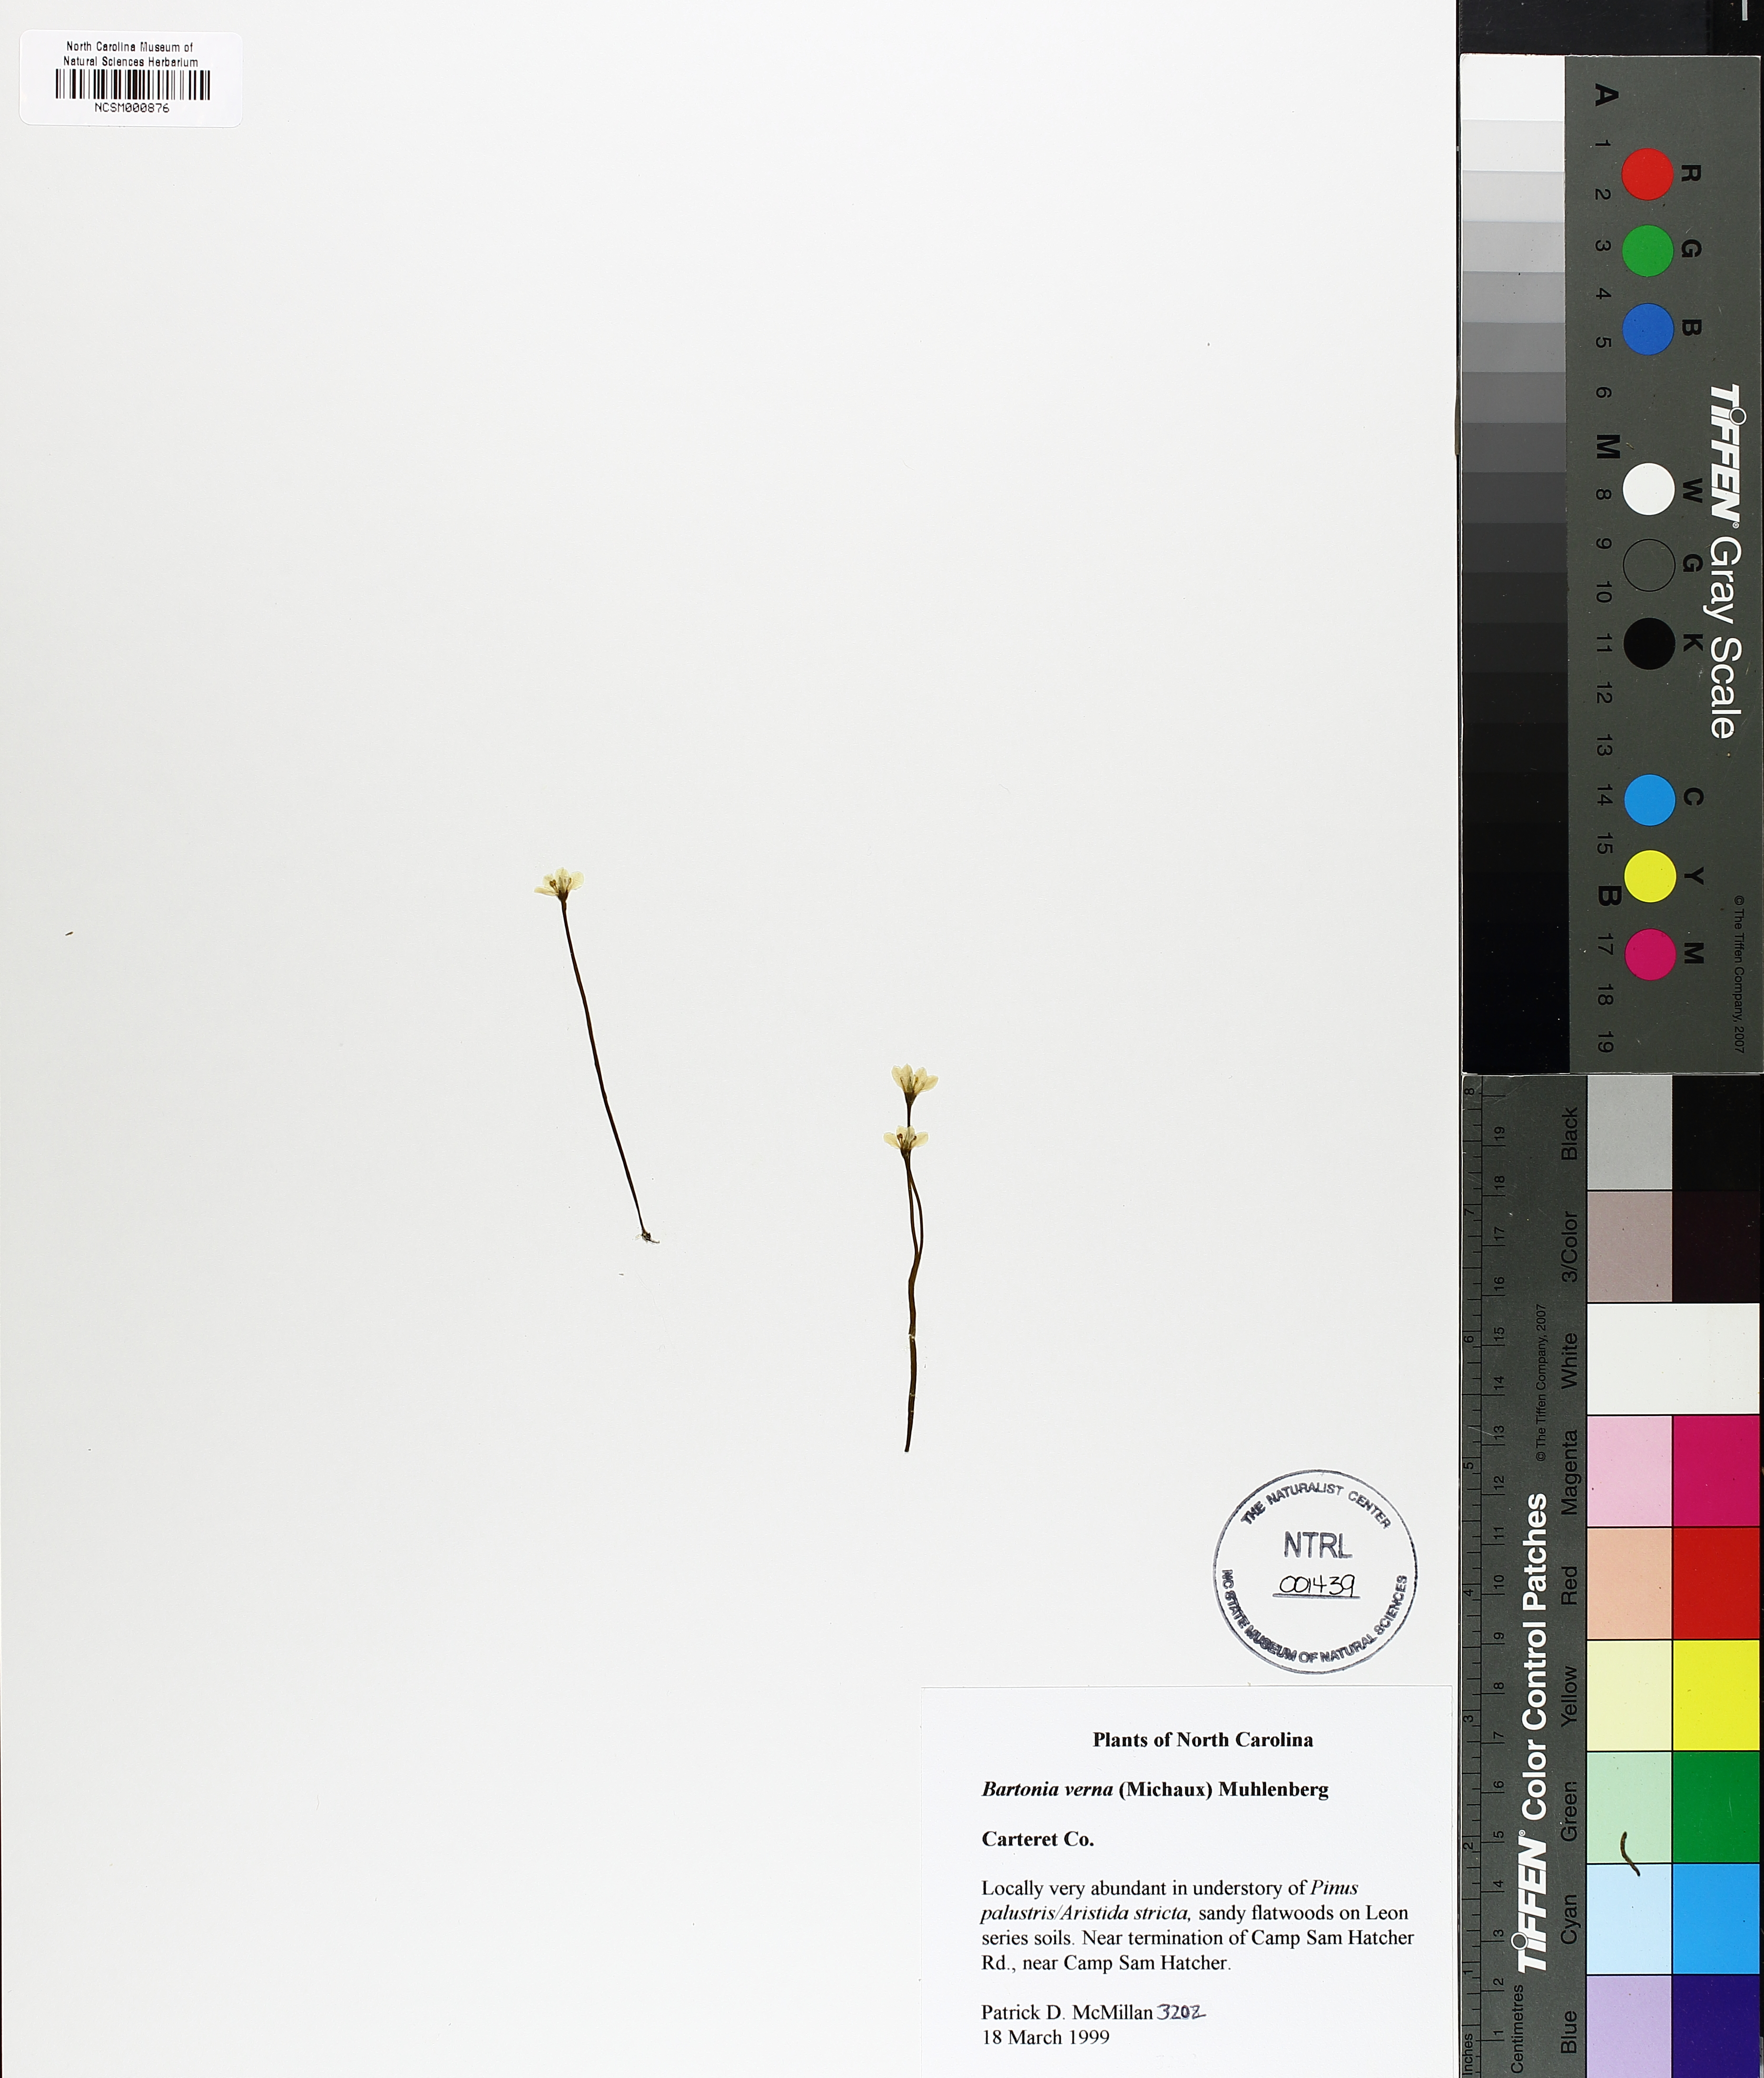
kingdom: Plantae
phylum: Tracheophyta
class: Magnoliopsida
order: Gentianales
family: Gentianaceae
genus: Bartonia
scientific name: Bartonia verna
